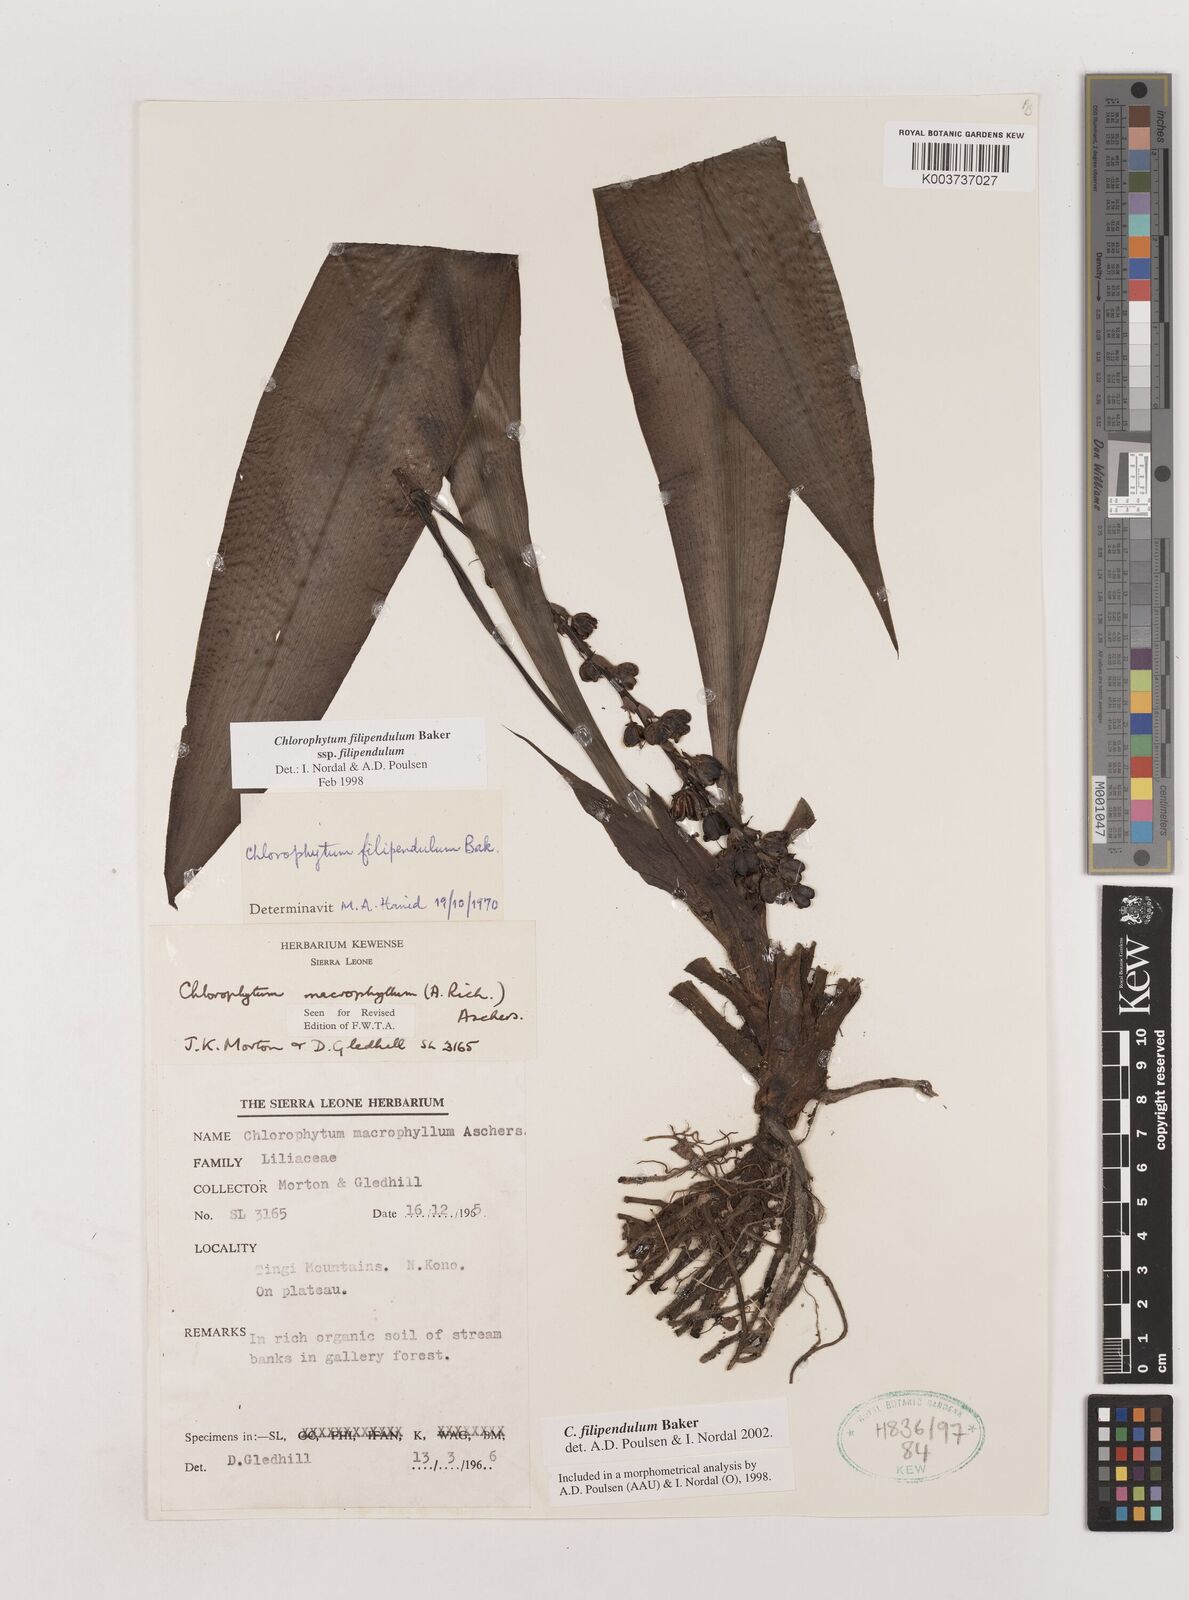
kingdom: Plantae
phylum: Tracheophyta
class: Liliopsida
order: Asparagales
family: Asparagaceae
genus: Chlorophytum
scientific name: Chlorophytum heynei
